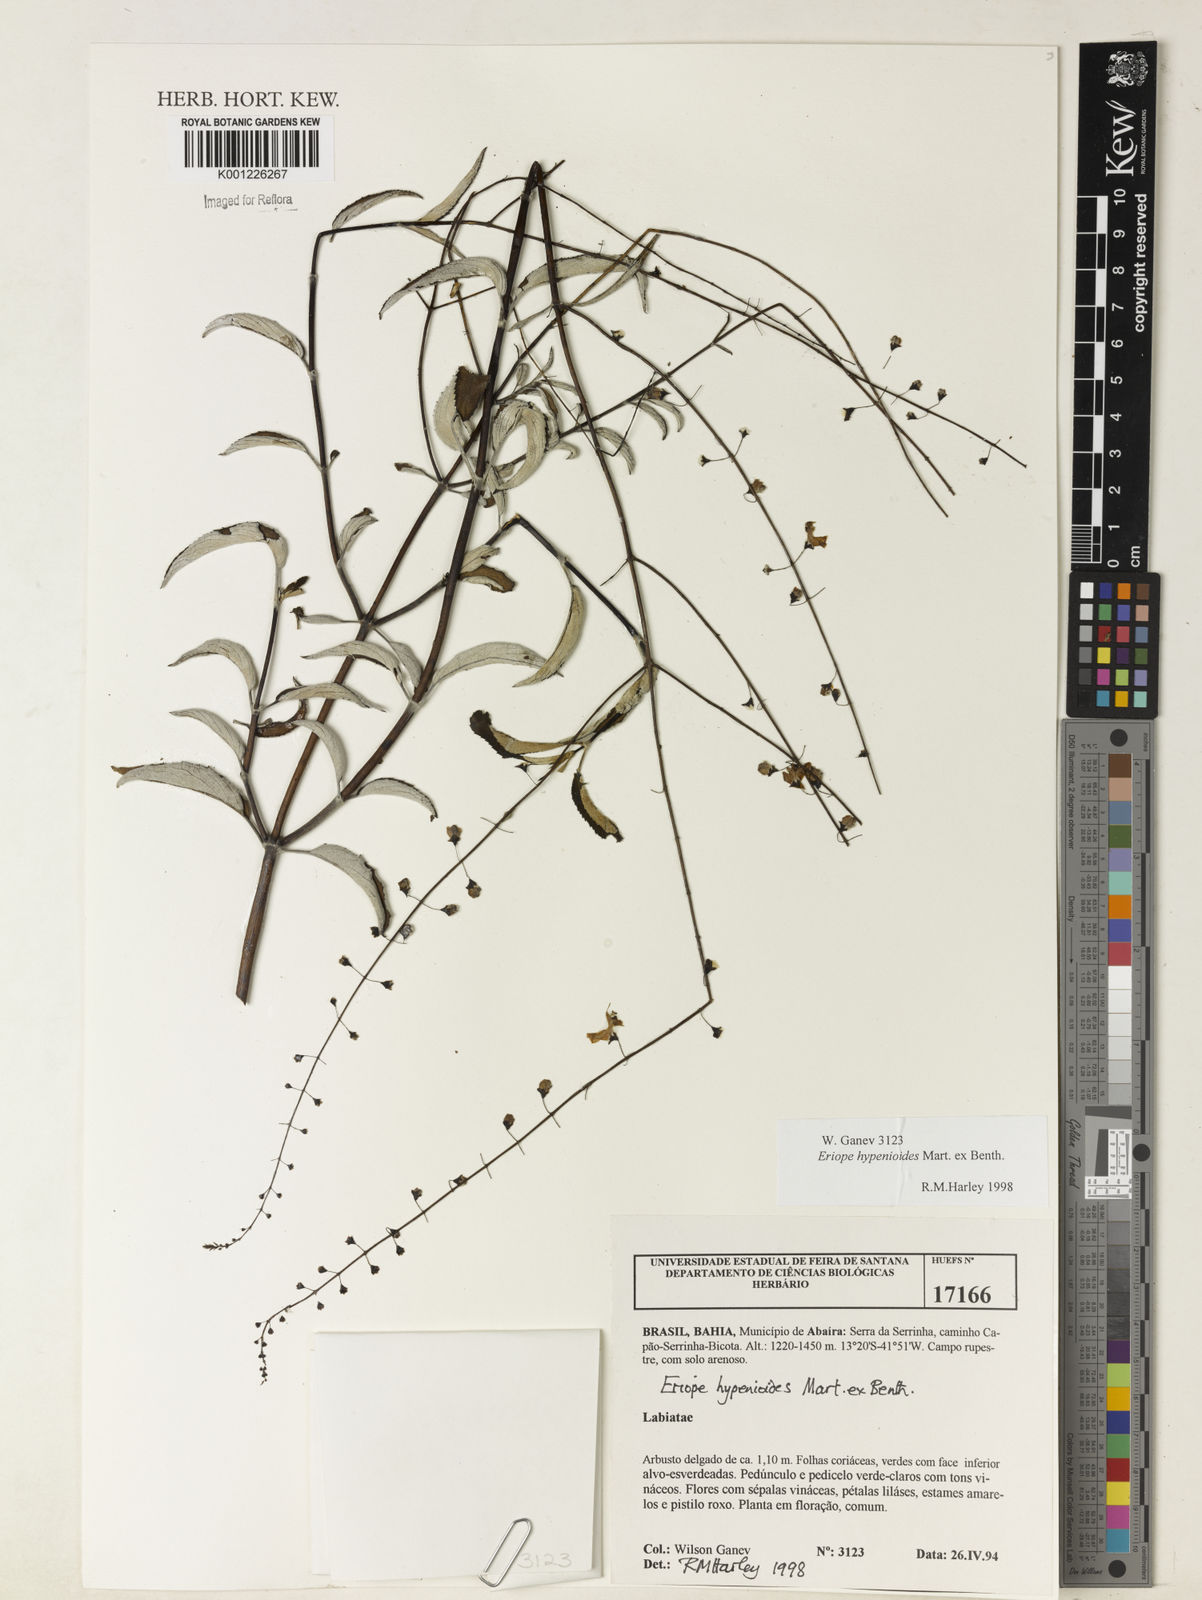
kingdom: Plantae
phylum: Tracheophyta
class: Magnoliopsida
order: Lamiales
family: Lamiaceae
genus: Eriope
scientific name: Eriope hypenioides
